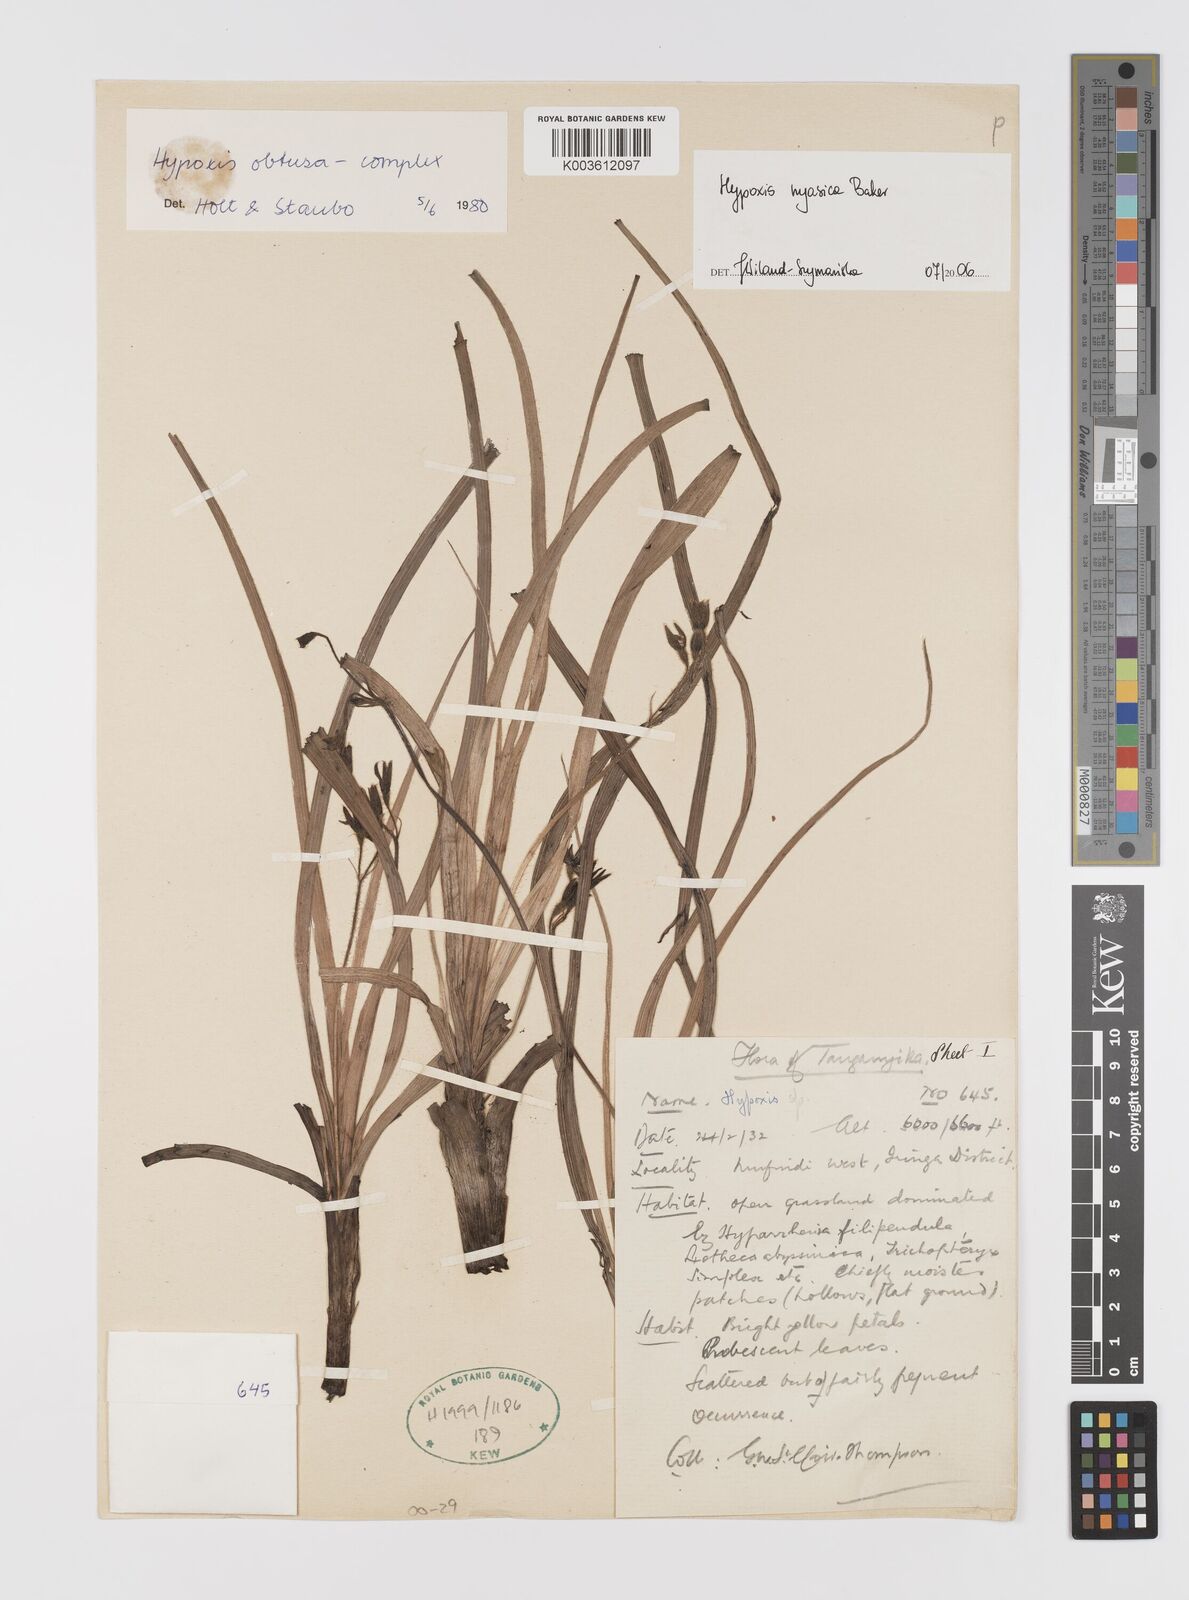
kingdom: Plantae
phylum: Tracheophyta
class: Liliopsida
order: Asparagales
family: Hypoxidaceae
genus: Hypoxis
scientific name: Hypoxis nyasica
